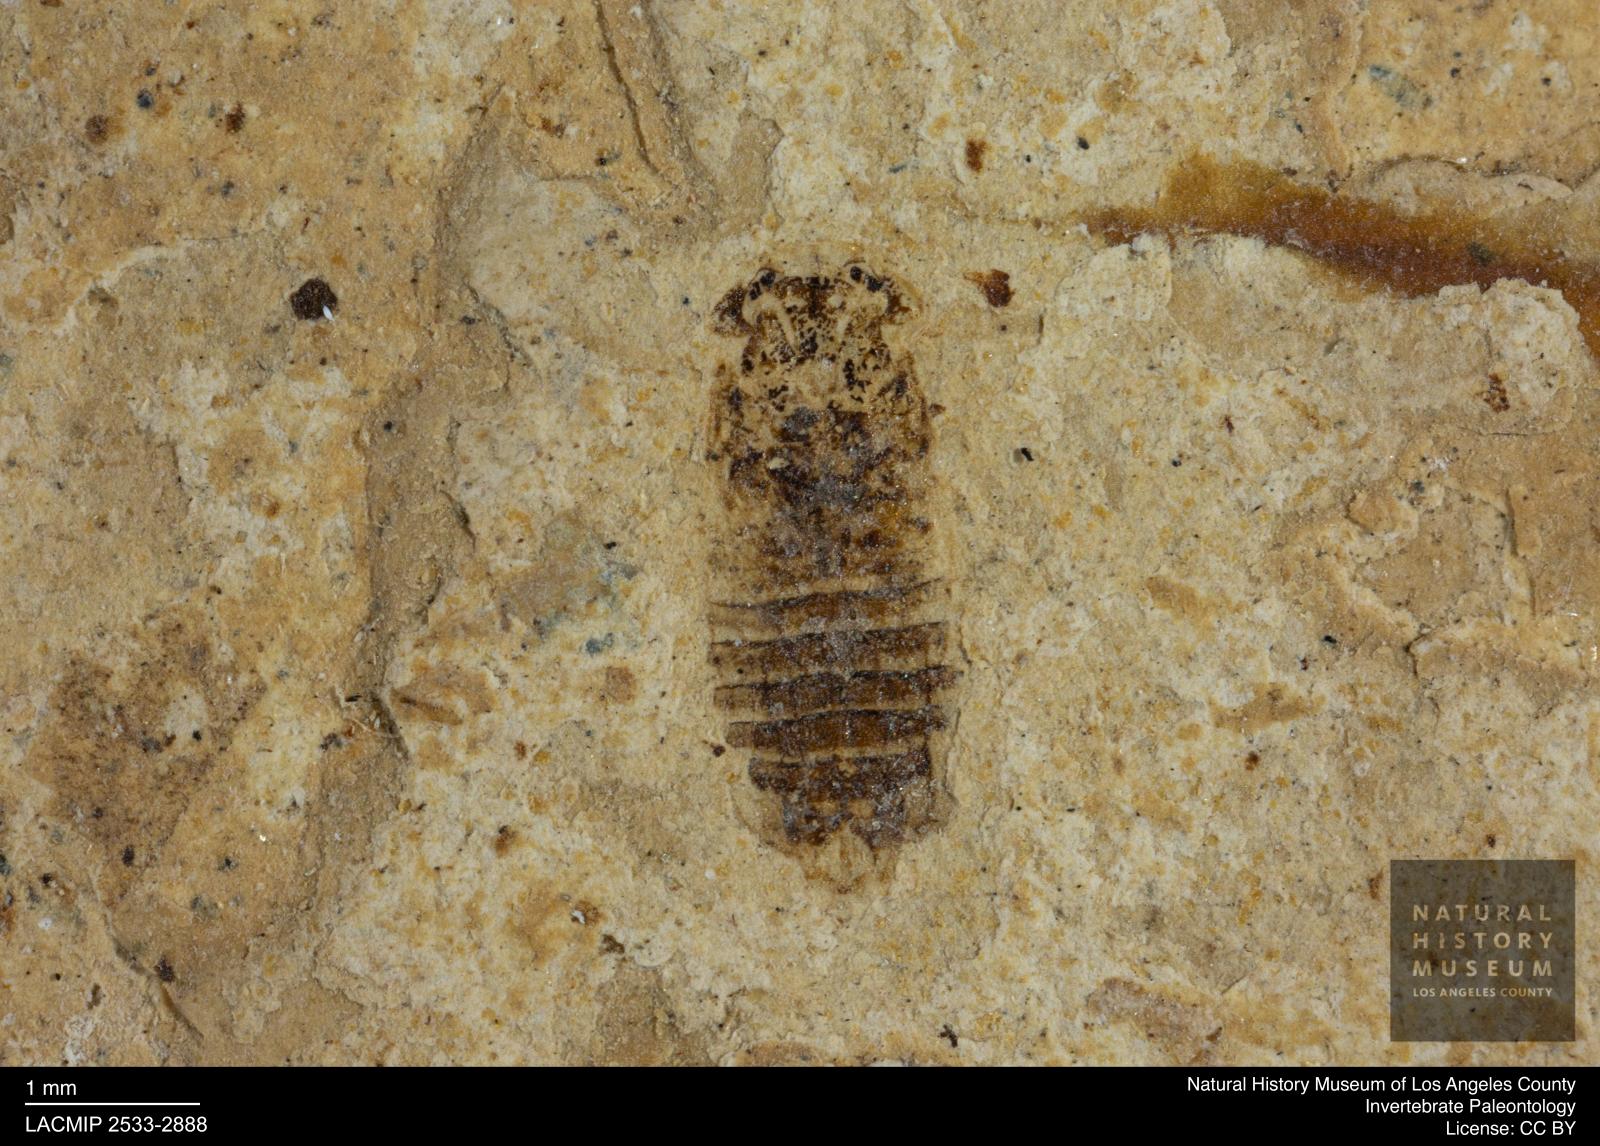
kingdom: Animalia
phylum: Arthropoda
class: Insecta
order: Hemiptera
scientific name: Hemiptera
